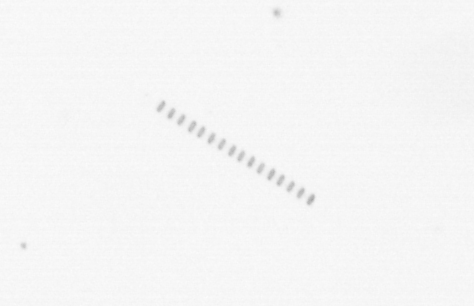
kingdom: Chromista
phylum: Ochrophyta
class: Bacillariophyceae
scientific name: Bacillariophyceae
